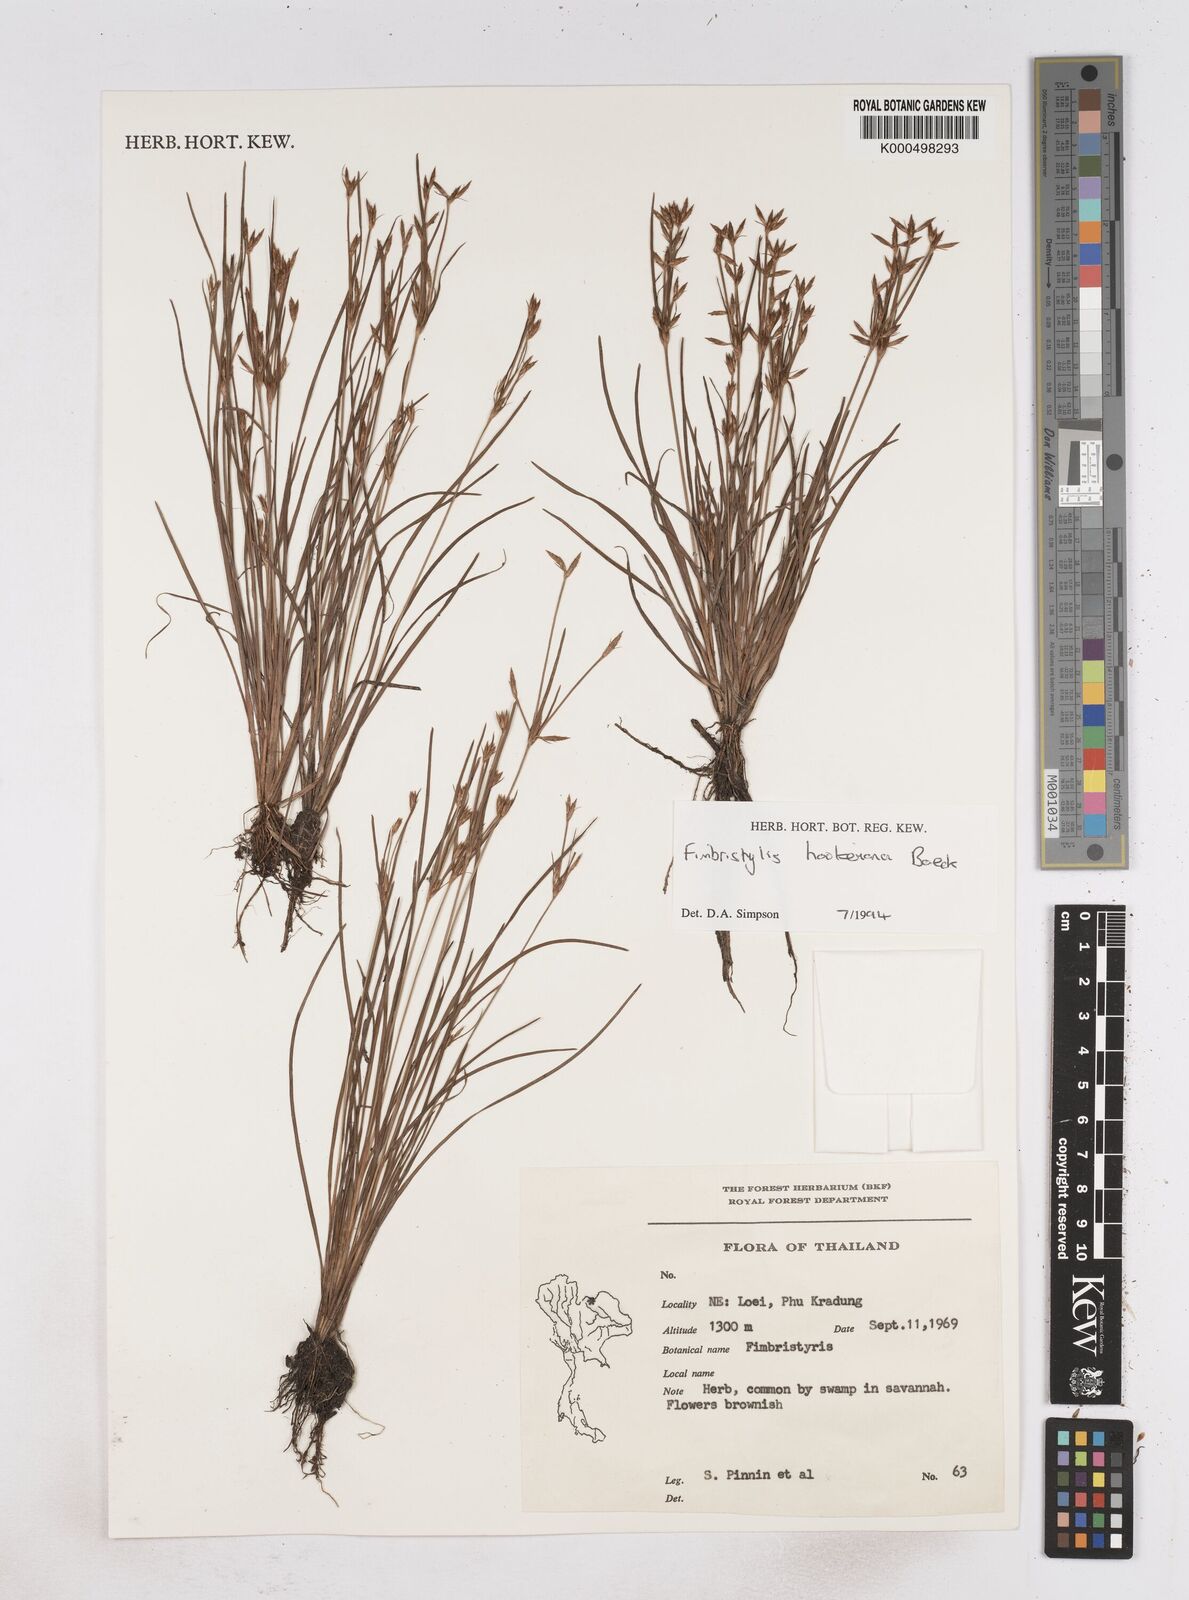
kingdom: Plantae
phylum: Tracheophyta
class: Liliopsida
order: Poales
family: Cyperaceae
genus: Fimbristylis
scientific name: Fimbristylis hookeriana
